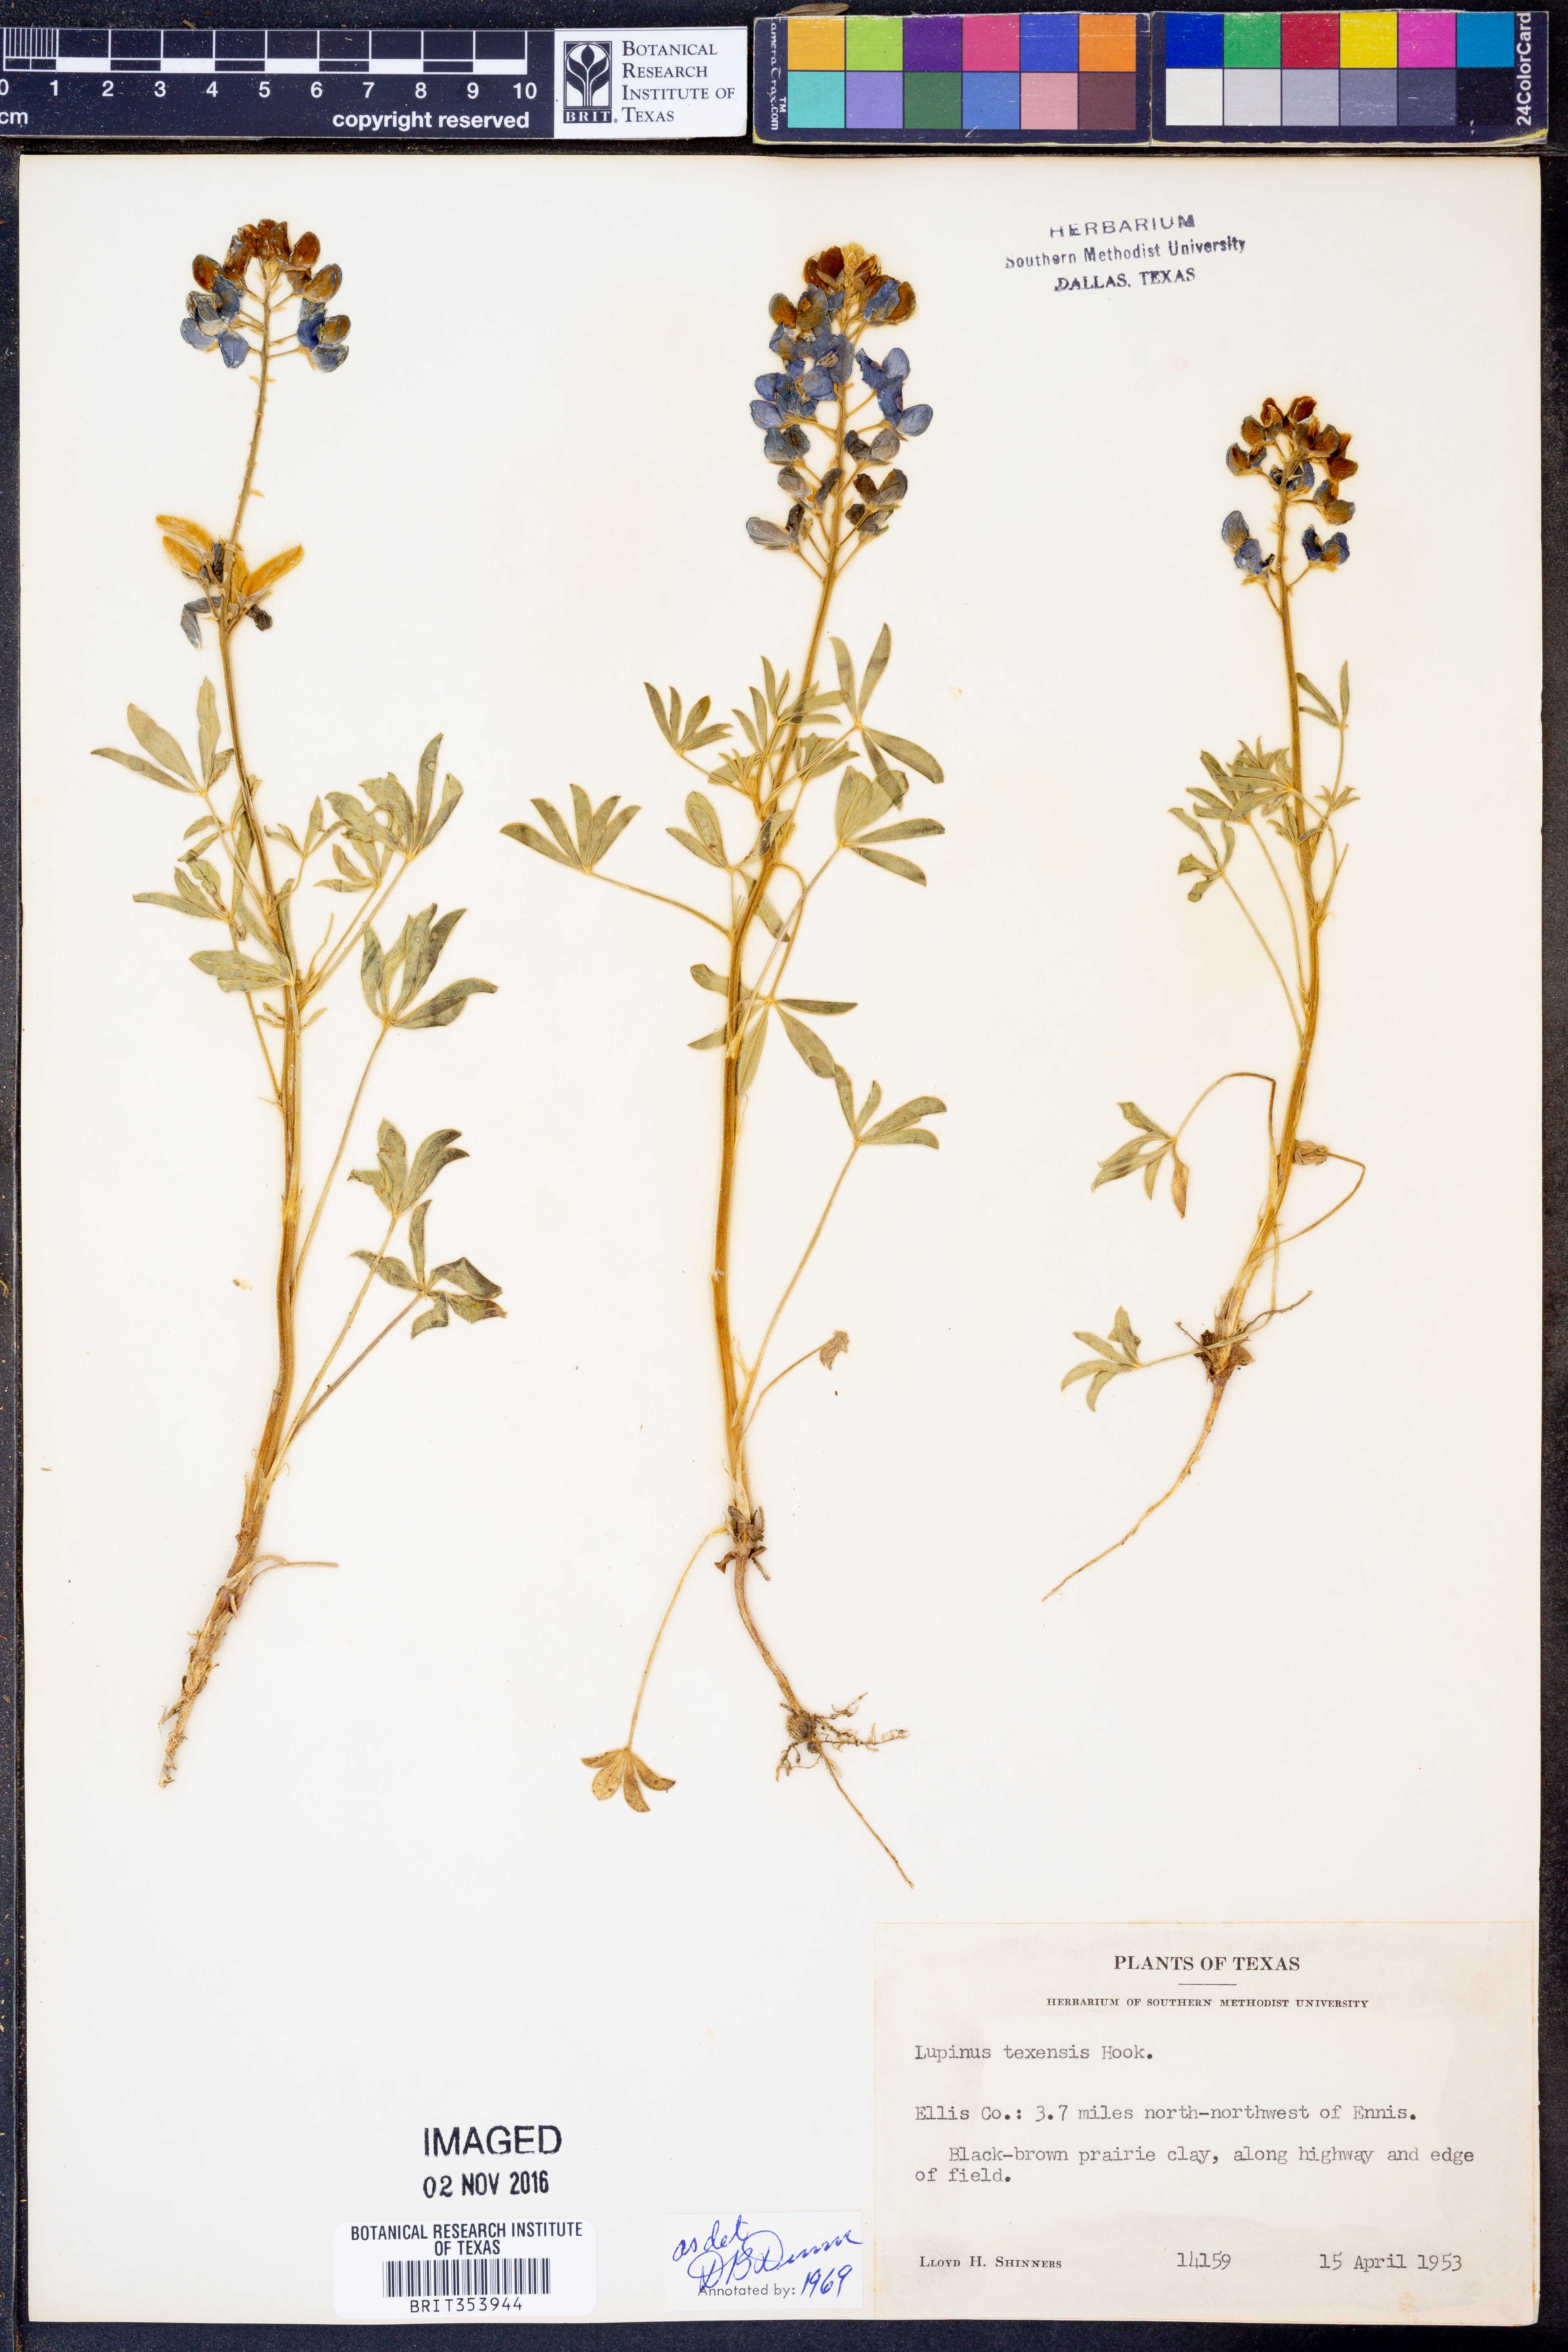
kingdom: Plantae
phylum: Tracheophyta
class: Magnoliopsida
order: Fabales
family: Fabaceae
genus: Lupinus
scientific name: Lupinus texensis
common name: Texas bluebonnet
